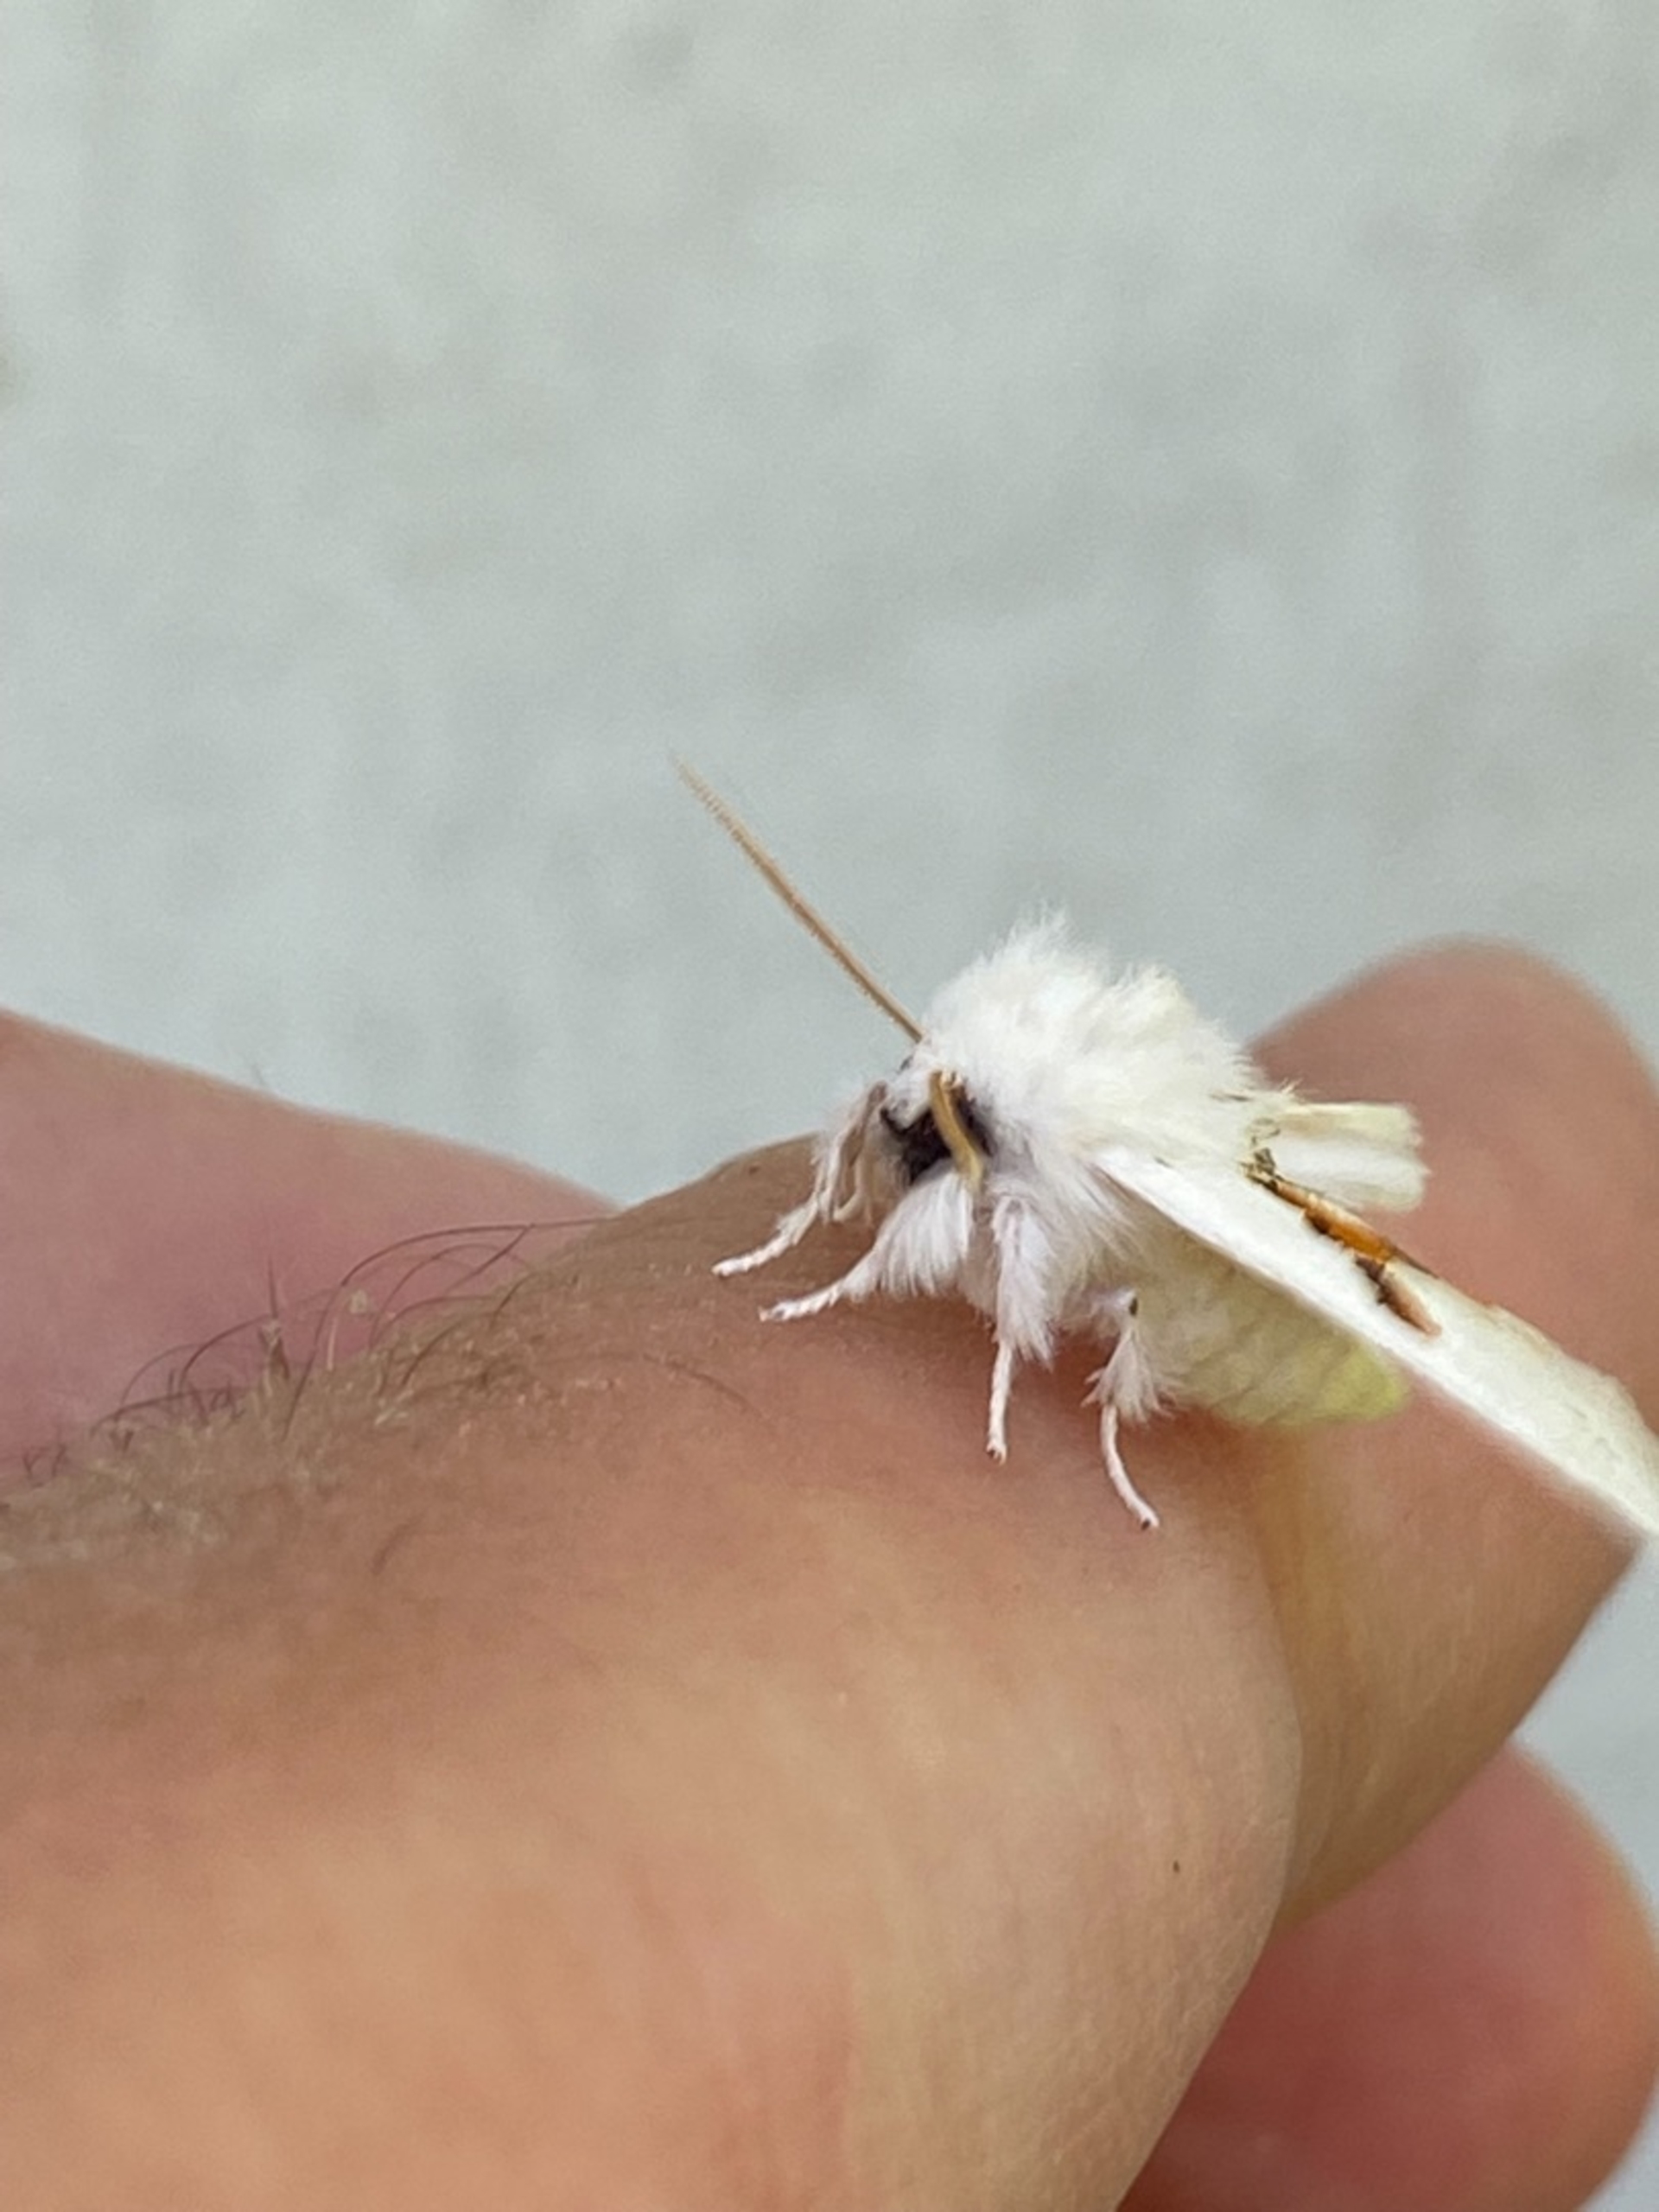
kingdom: Animalia
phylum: Arthropoda
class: Insecta
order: Lepidoptera
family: Notodontidae
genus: Leucodonta
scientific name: Leucodonta bicoloria
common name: Snehvid birkespinder
